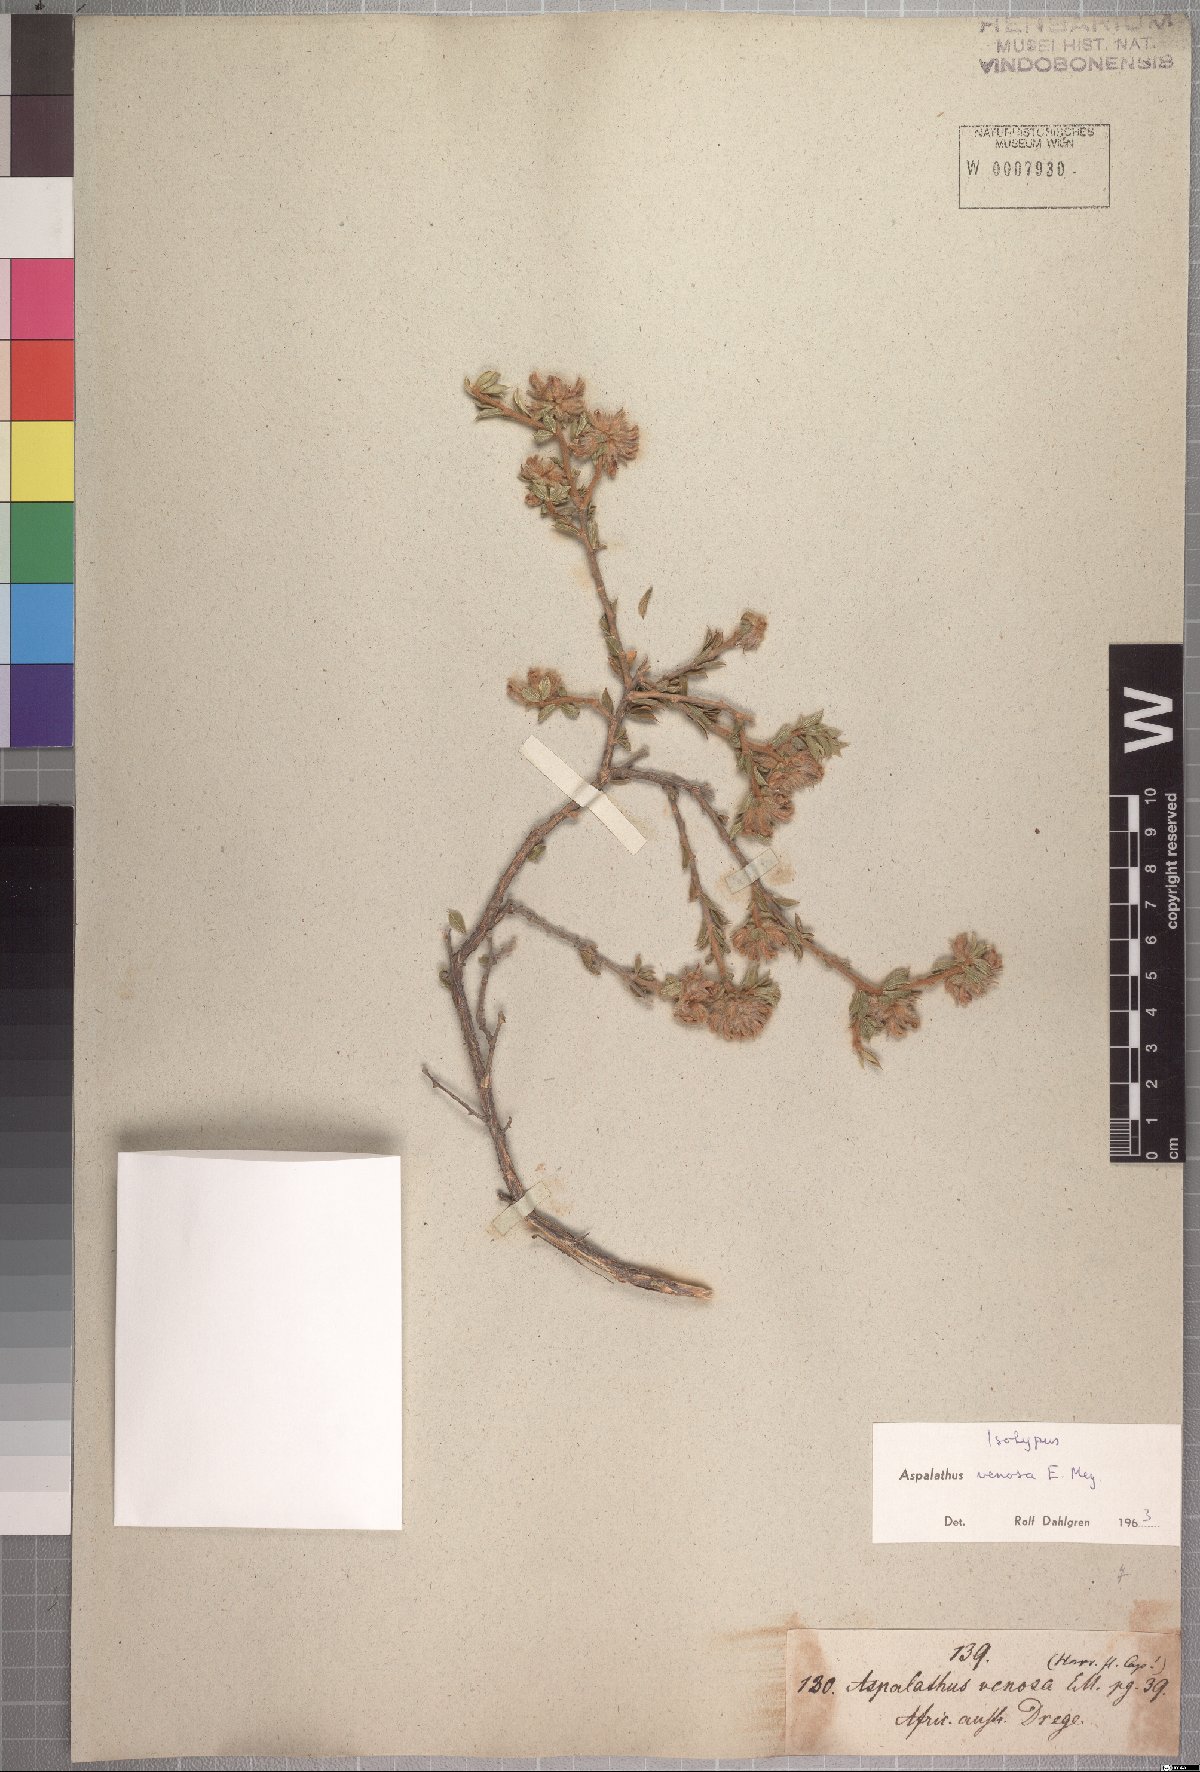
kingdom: Plantae
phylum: Tracheophyta
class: Magnoliopsida
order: Fabales
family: Fabaceae
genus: Aspalathus
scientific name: Aspalathus venosa
